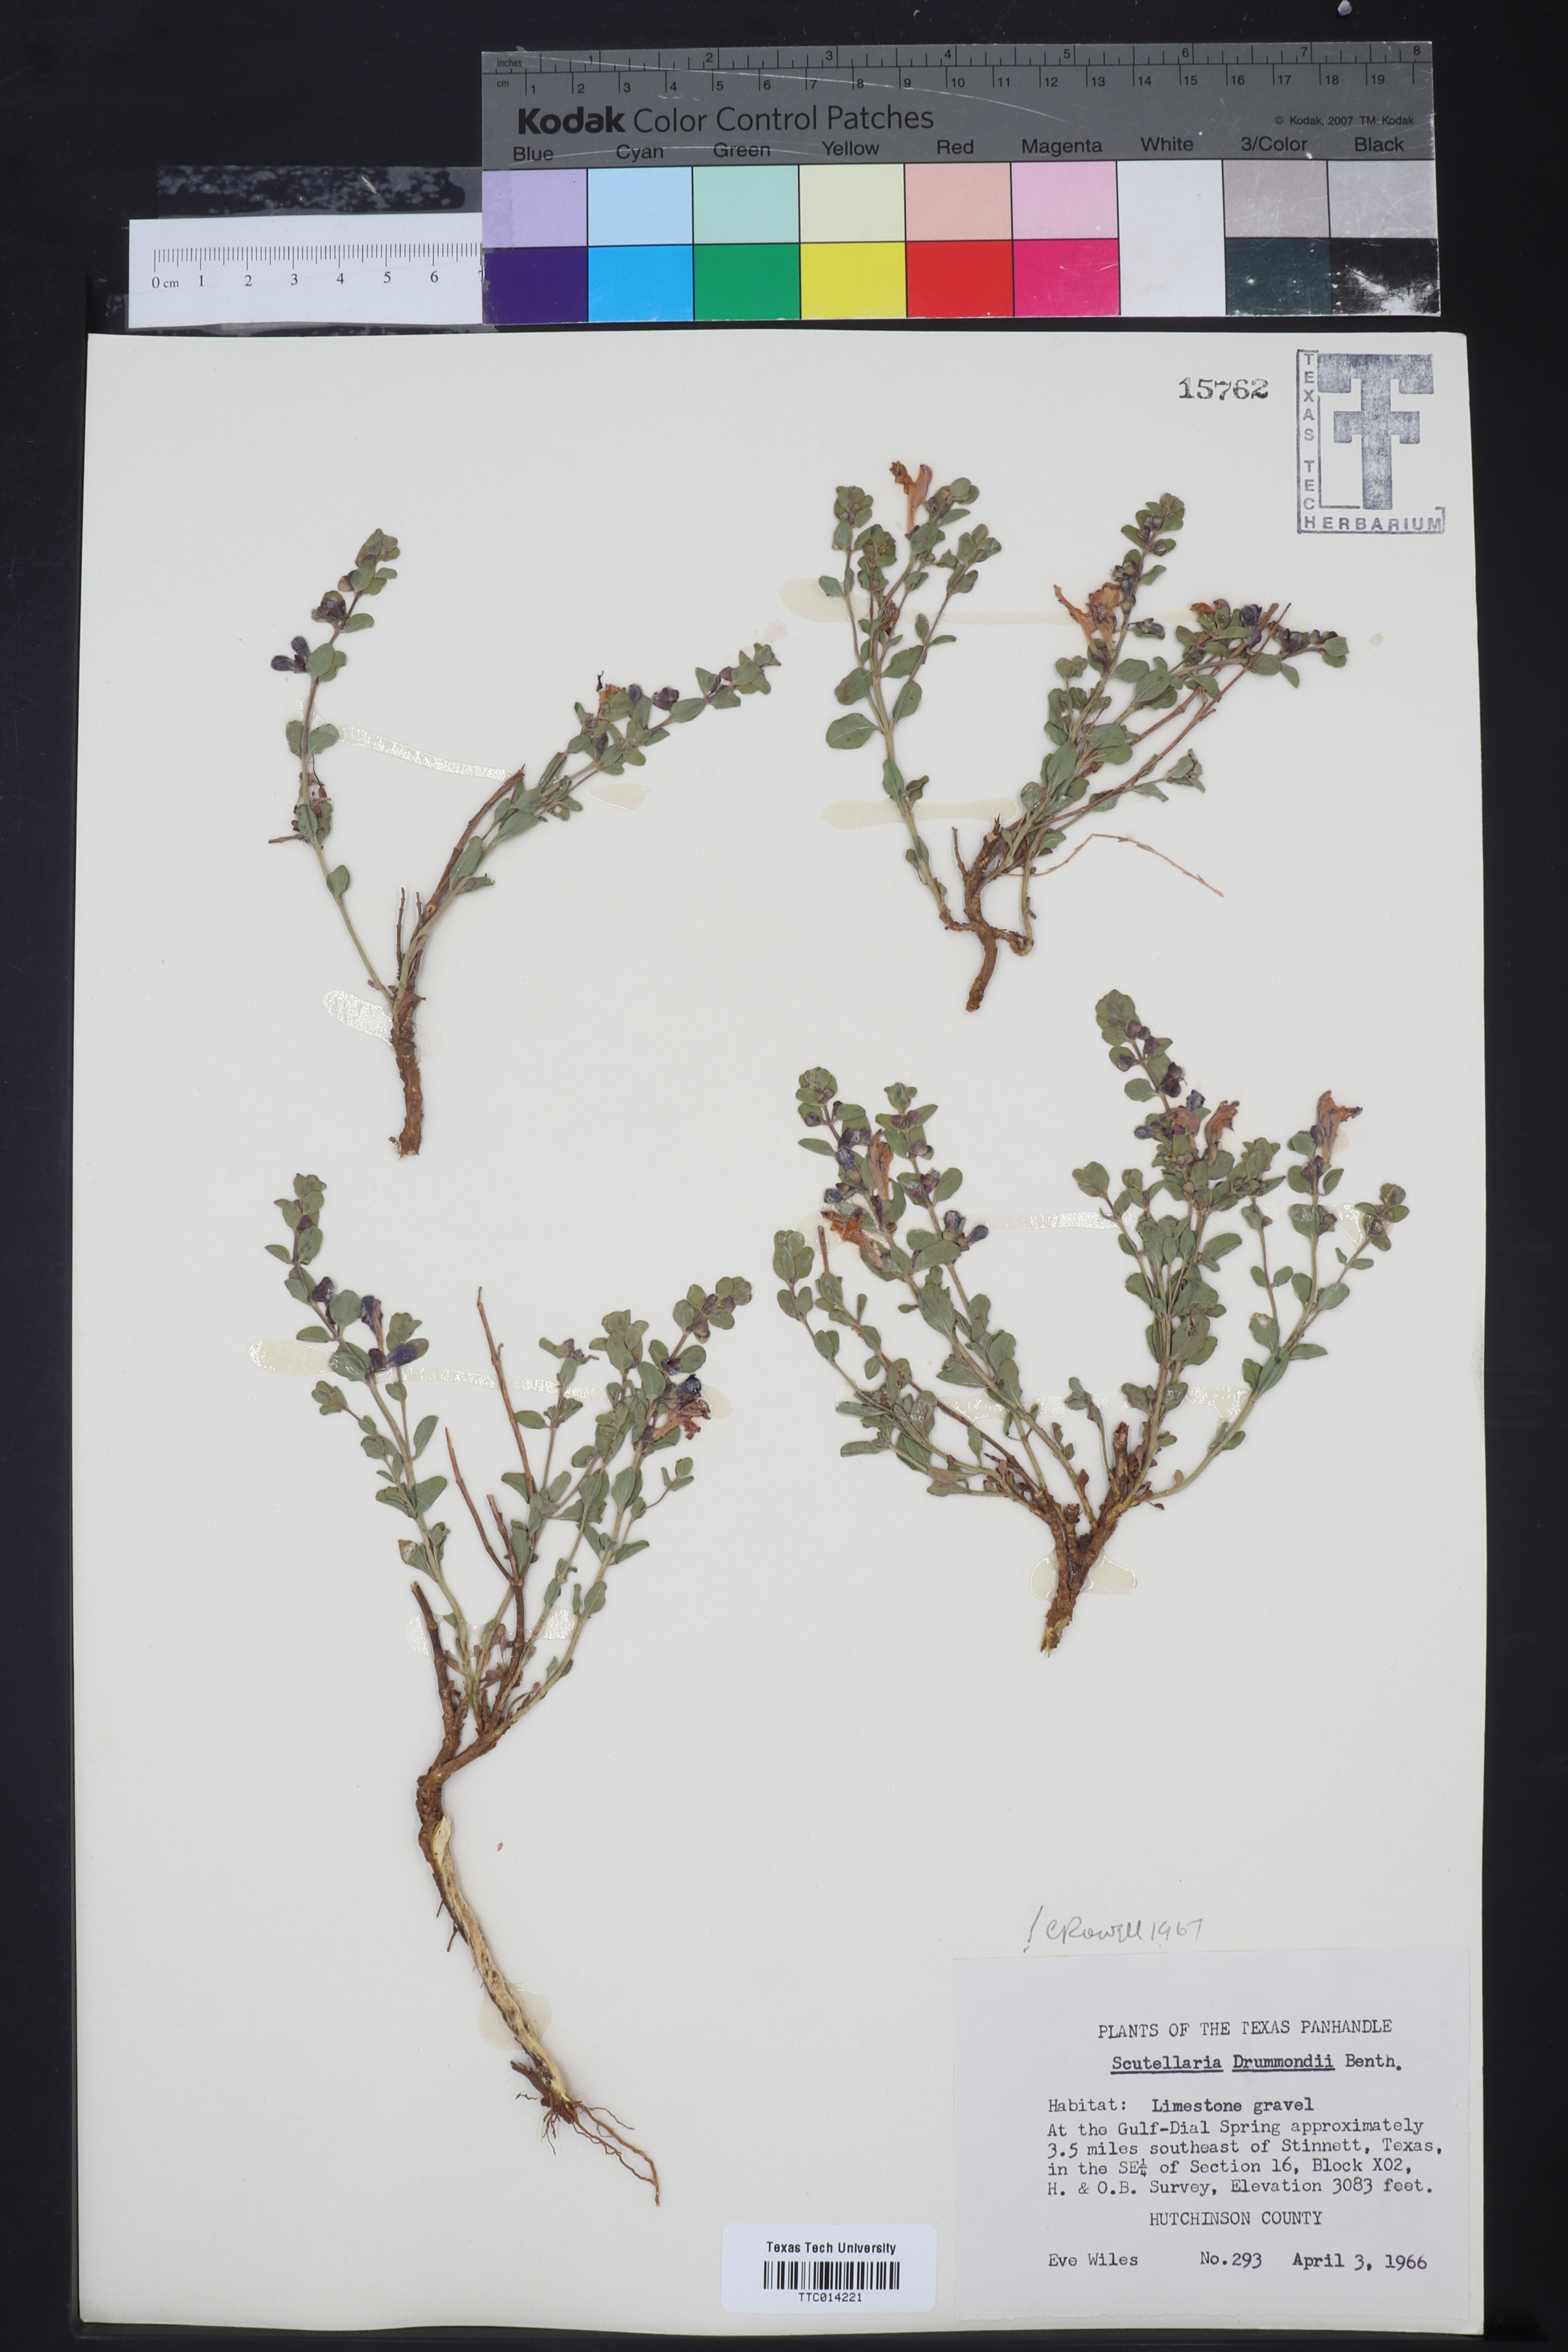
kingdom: Plantae
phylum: Tracheophyta
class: Magnoliopsida
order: Lamiales
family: Lamiaceae
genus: Scutellaria
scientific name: Scutellaria drummondii
